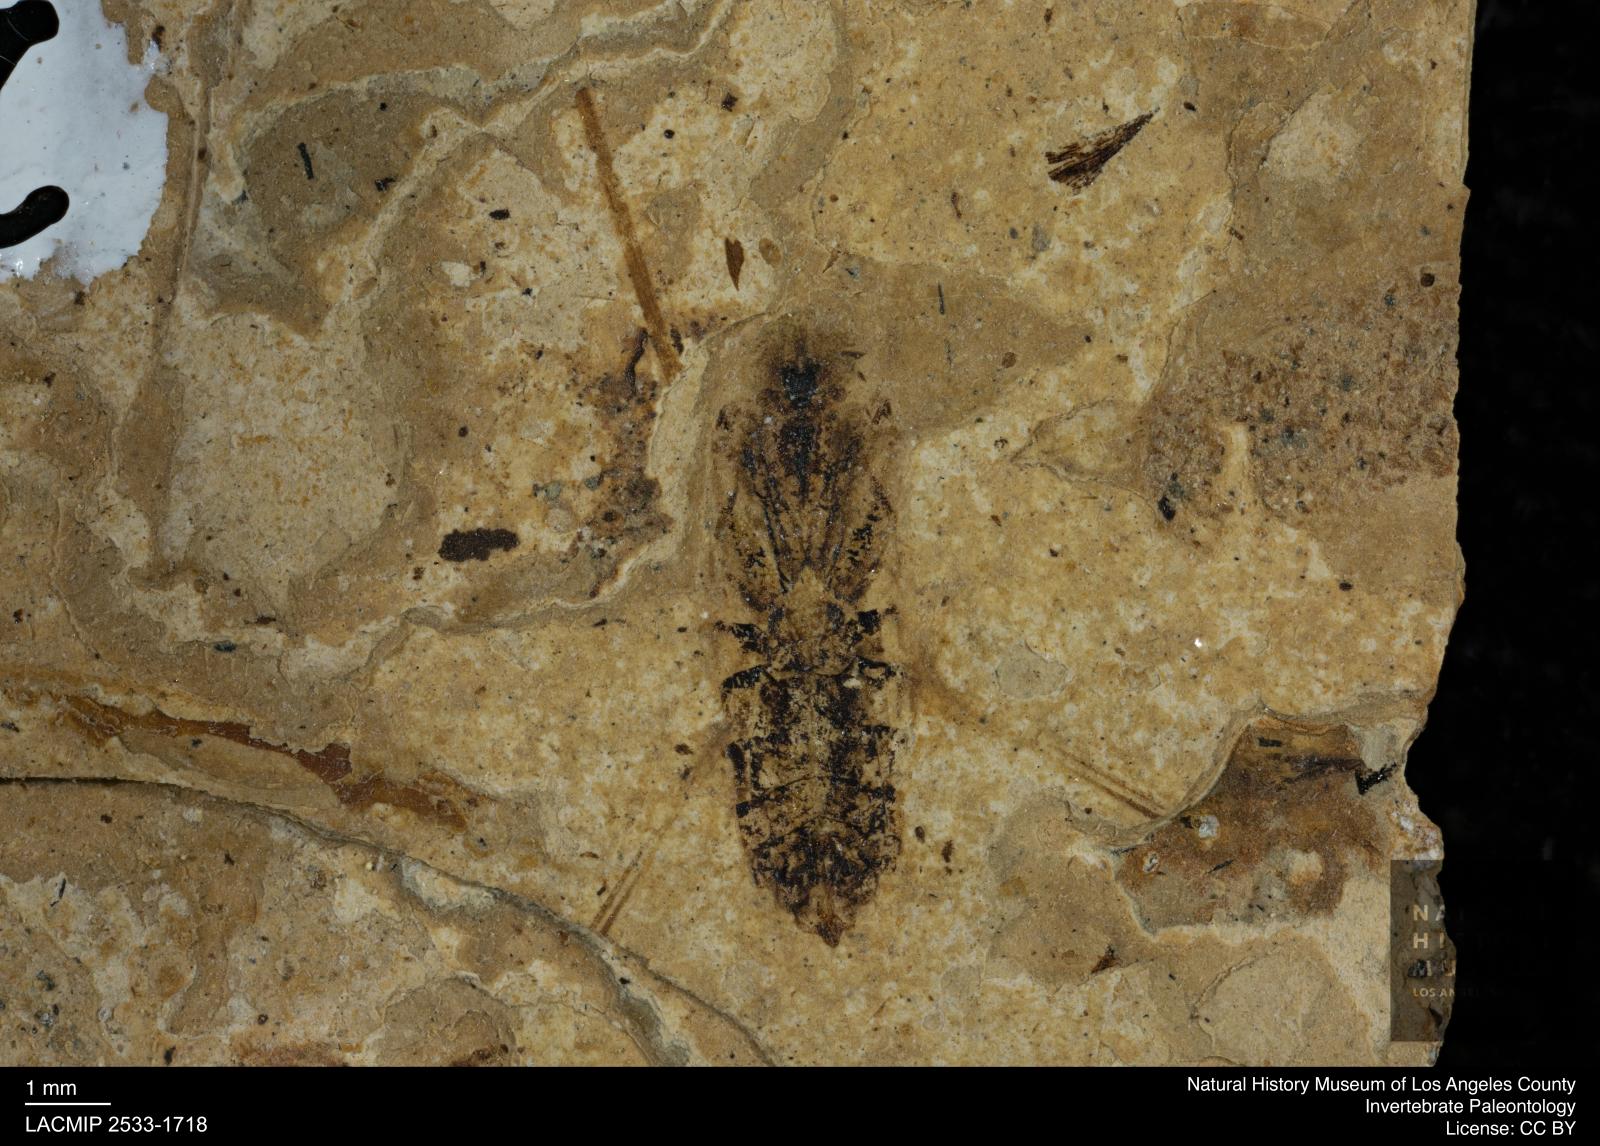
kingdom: Animalia
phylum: Arthropoda
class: Insecta
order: Hemiptera
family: Notonectidae
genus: Notonecta
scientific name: Notonecta
